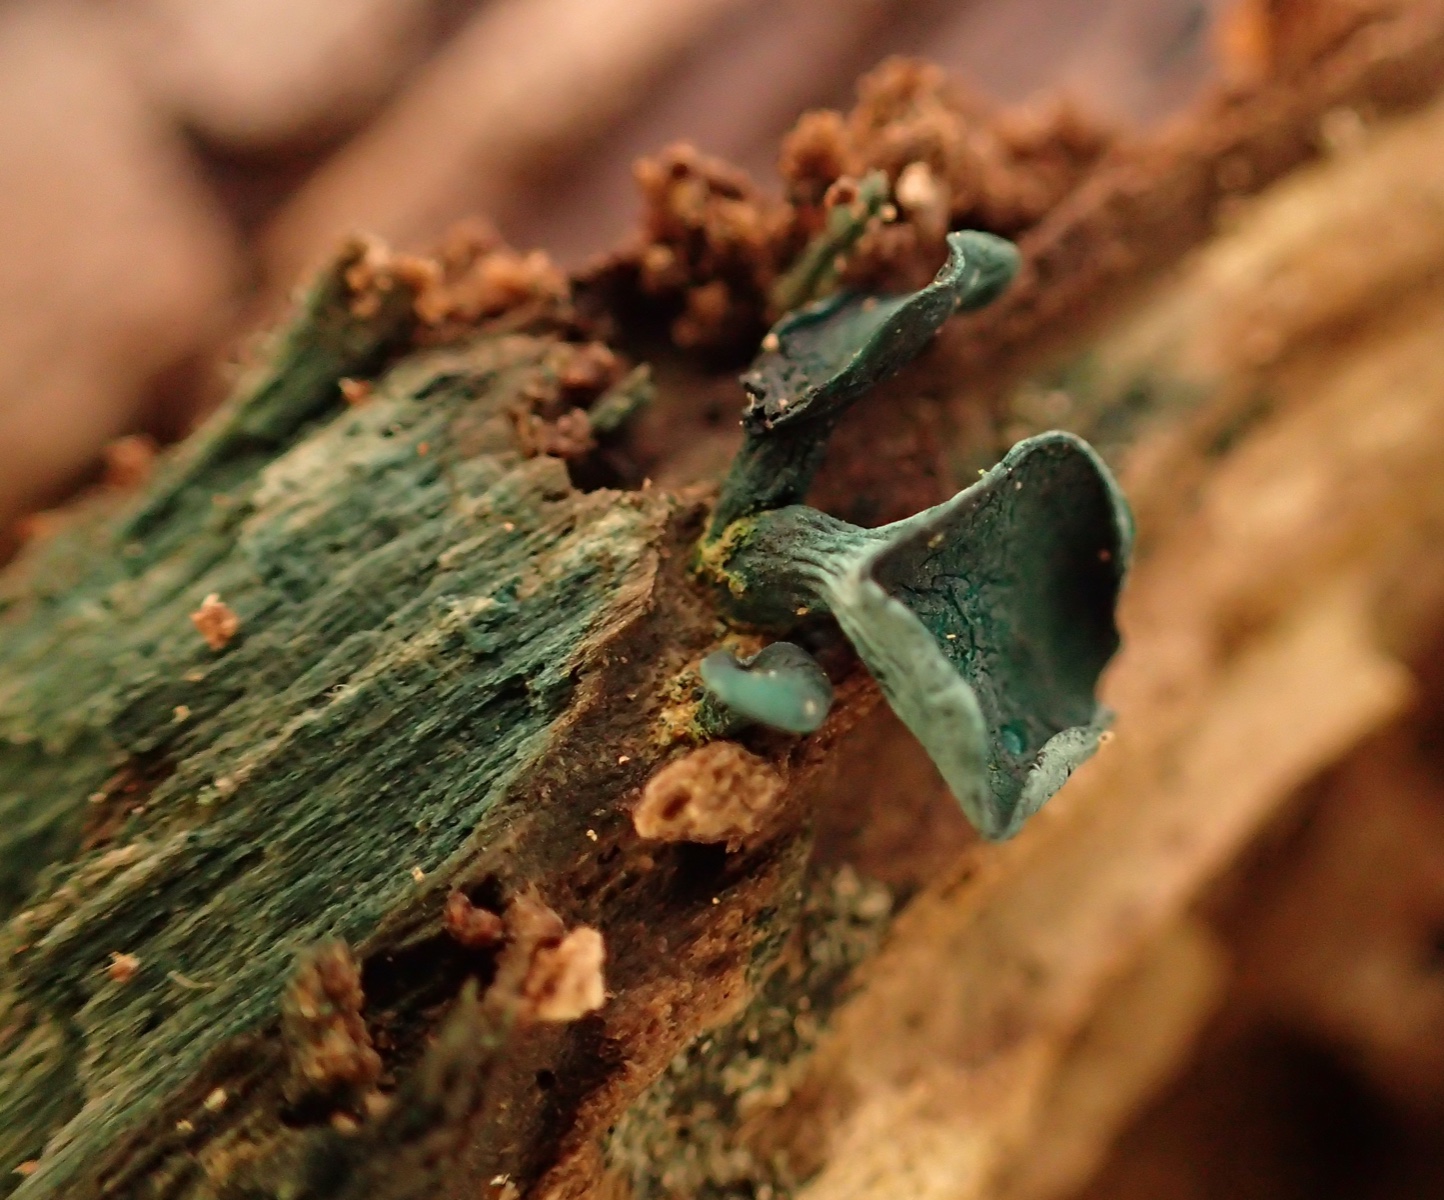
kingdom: Fungi
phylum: Ascomycota
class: Leotiomycetes
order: Helotiales
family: Chlorociboriaceae
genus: Chlorociboria
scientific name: Chlorociboria aeruginascens
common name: almindelig grønskive
